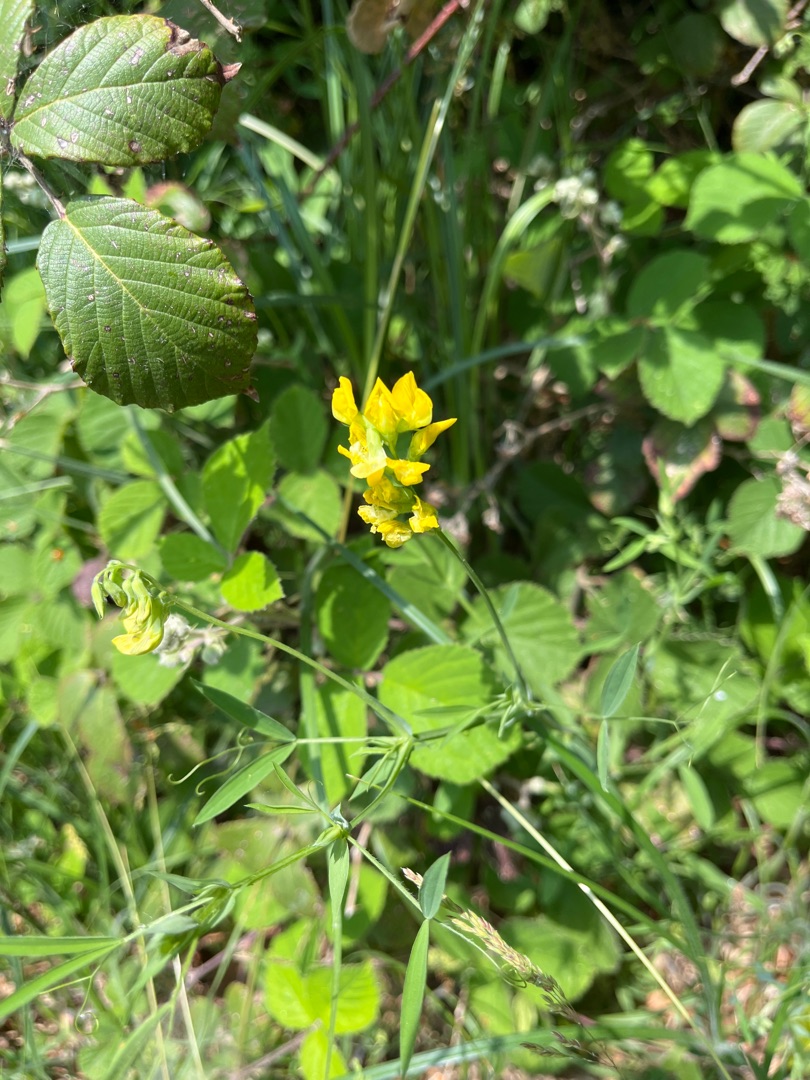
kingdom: Plantae
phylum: Tracheophyta
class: Magnoliopsida
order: Fabales
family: Fabaceae
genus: Lathyrus
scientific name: Lathyrus pratensis
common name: Gul fladbælg
